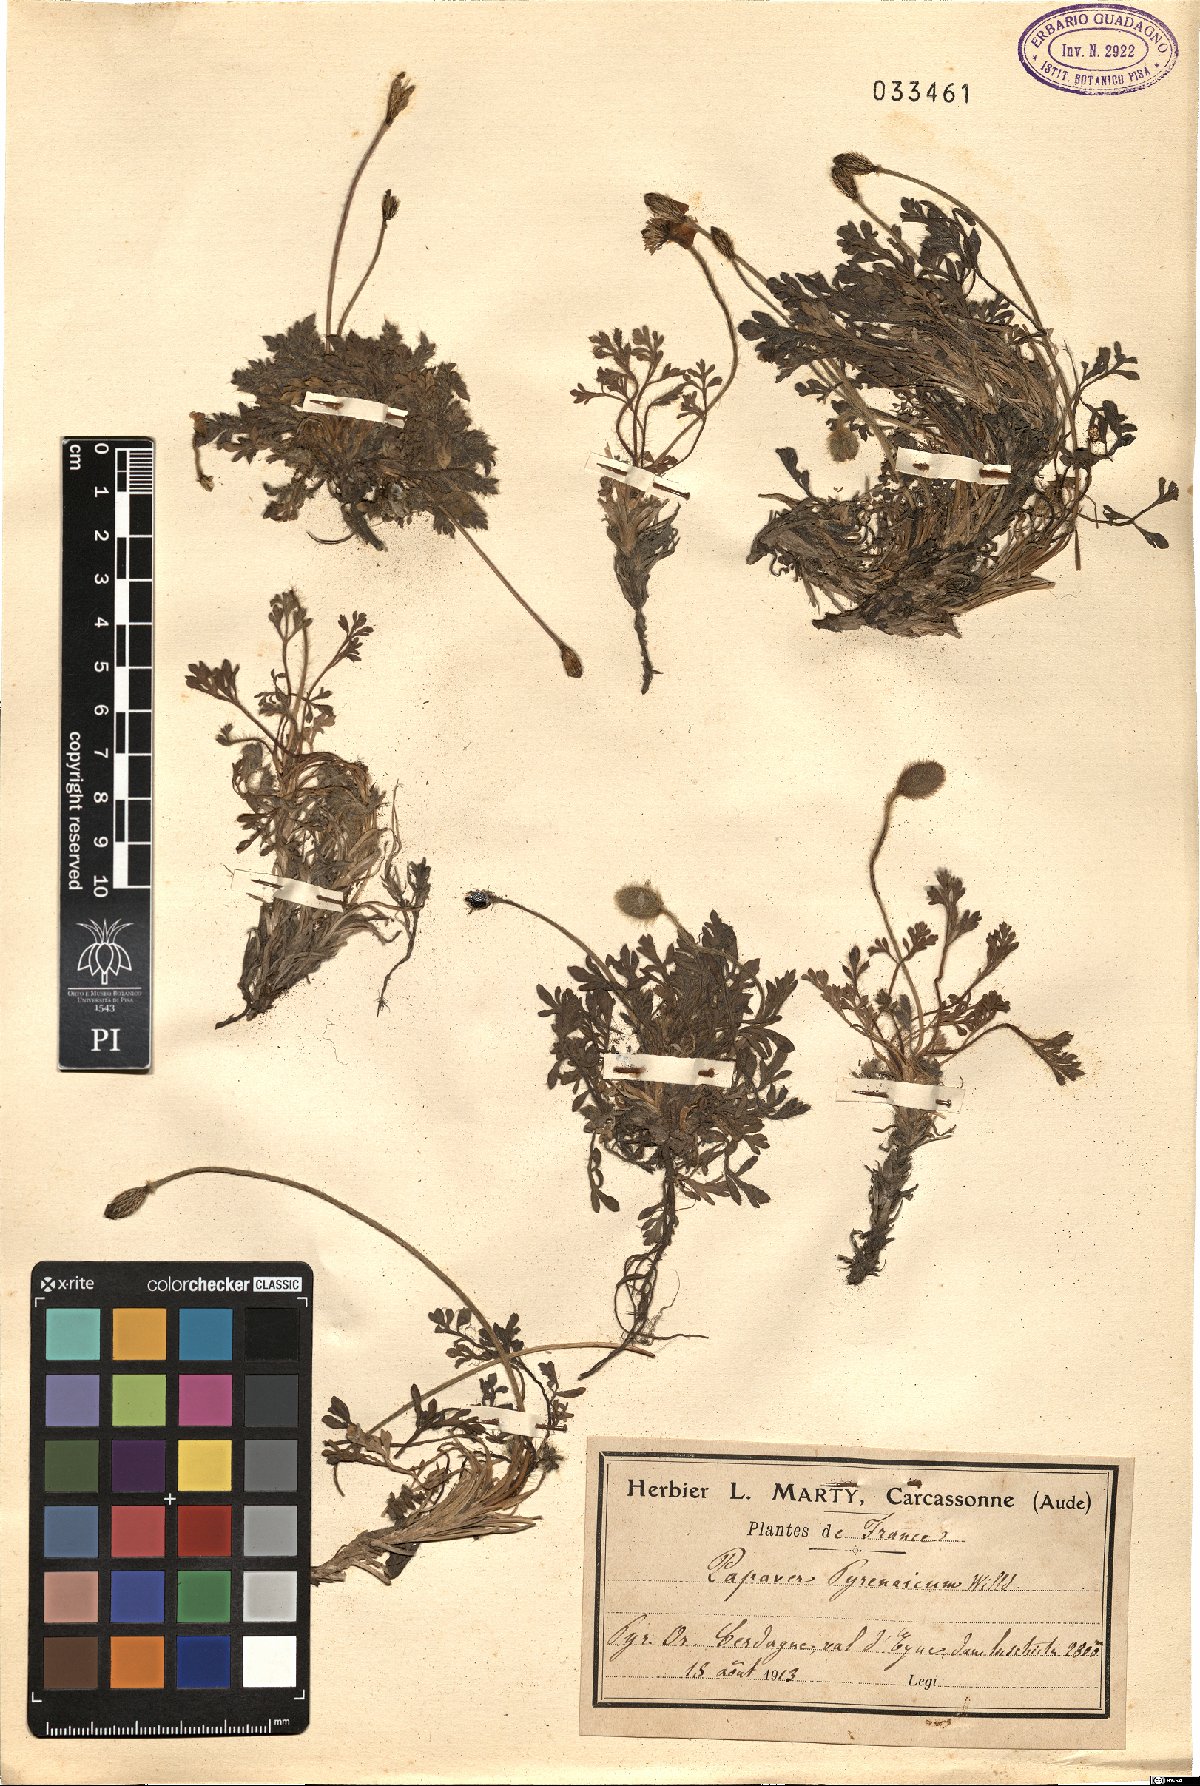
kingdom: Plantae
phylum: Tracheophyta
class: Magnoliopsida
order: Ranunculales
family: Papaveraceae
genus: Papaver
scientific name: Papaver alpinum
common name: Austrian poppy
